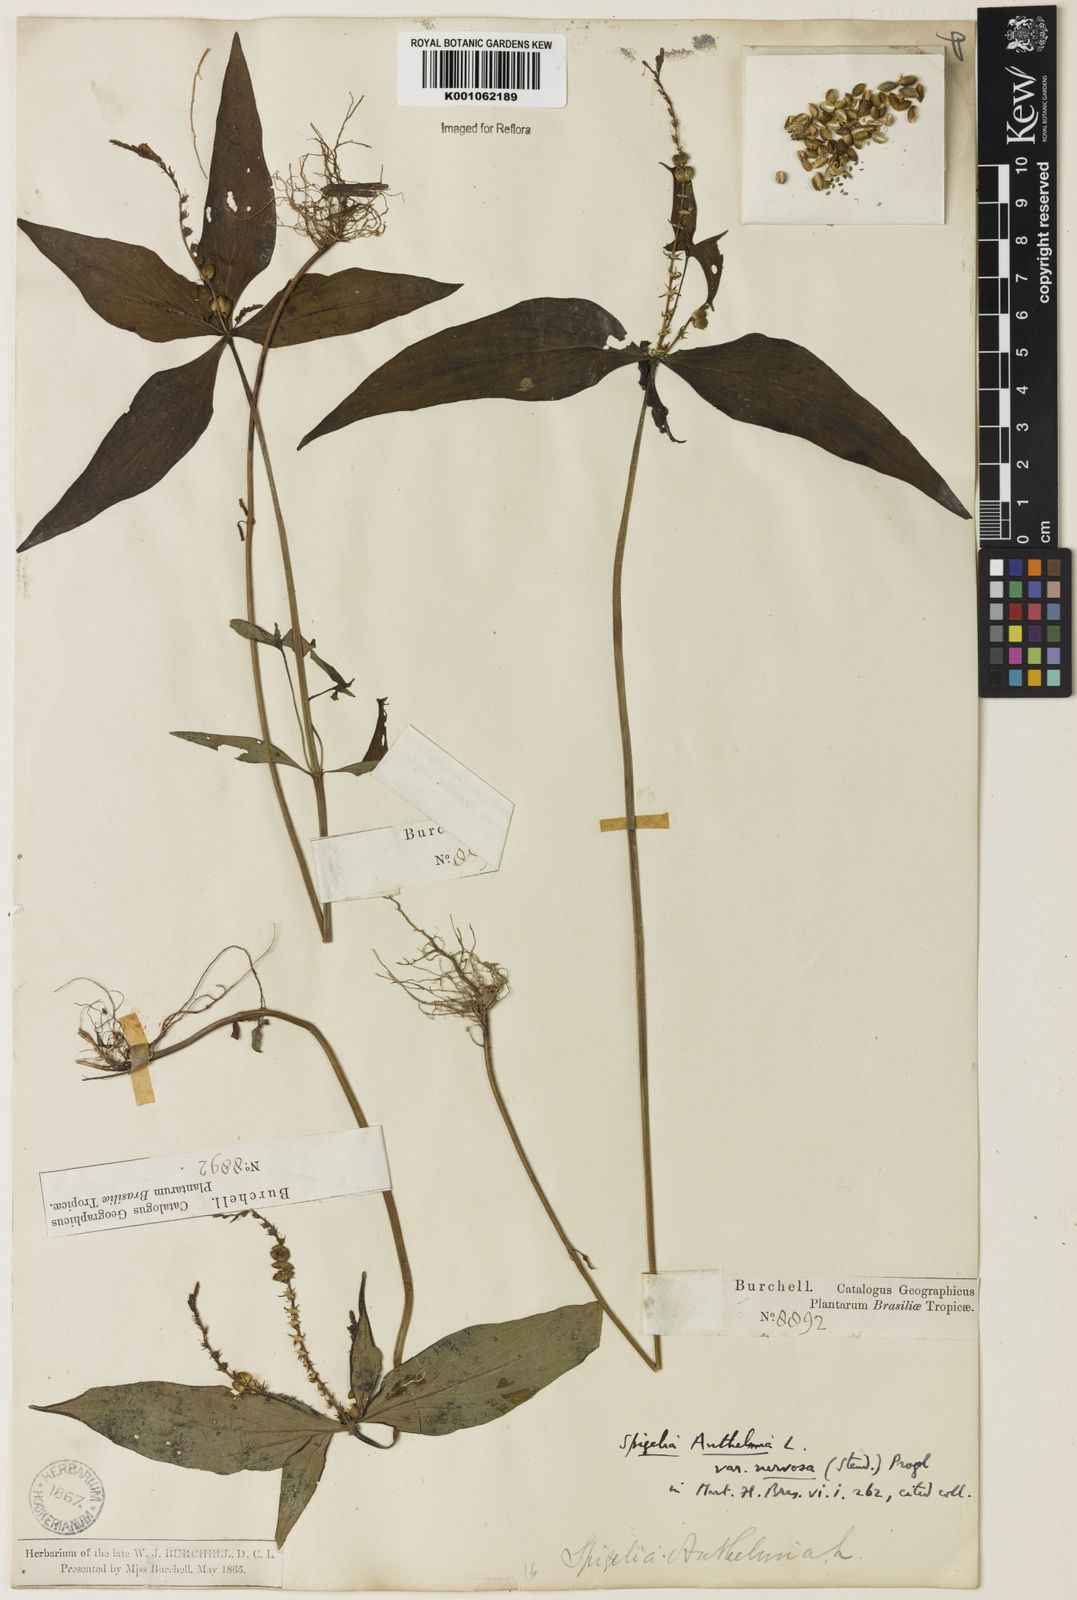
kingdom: Plantae
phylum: Tracheophyta
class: Magnoliopsida
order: Gentianales
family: Loganiaceae
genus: Spigelia
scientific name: Spigelia anthelmia
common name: West indian-pink
